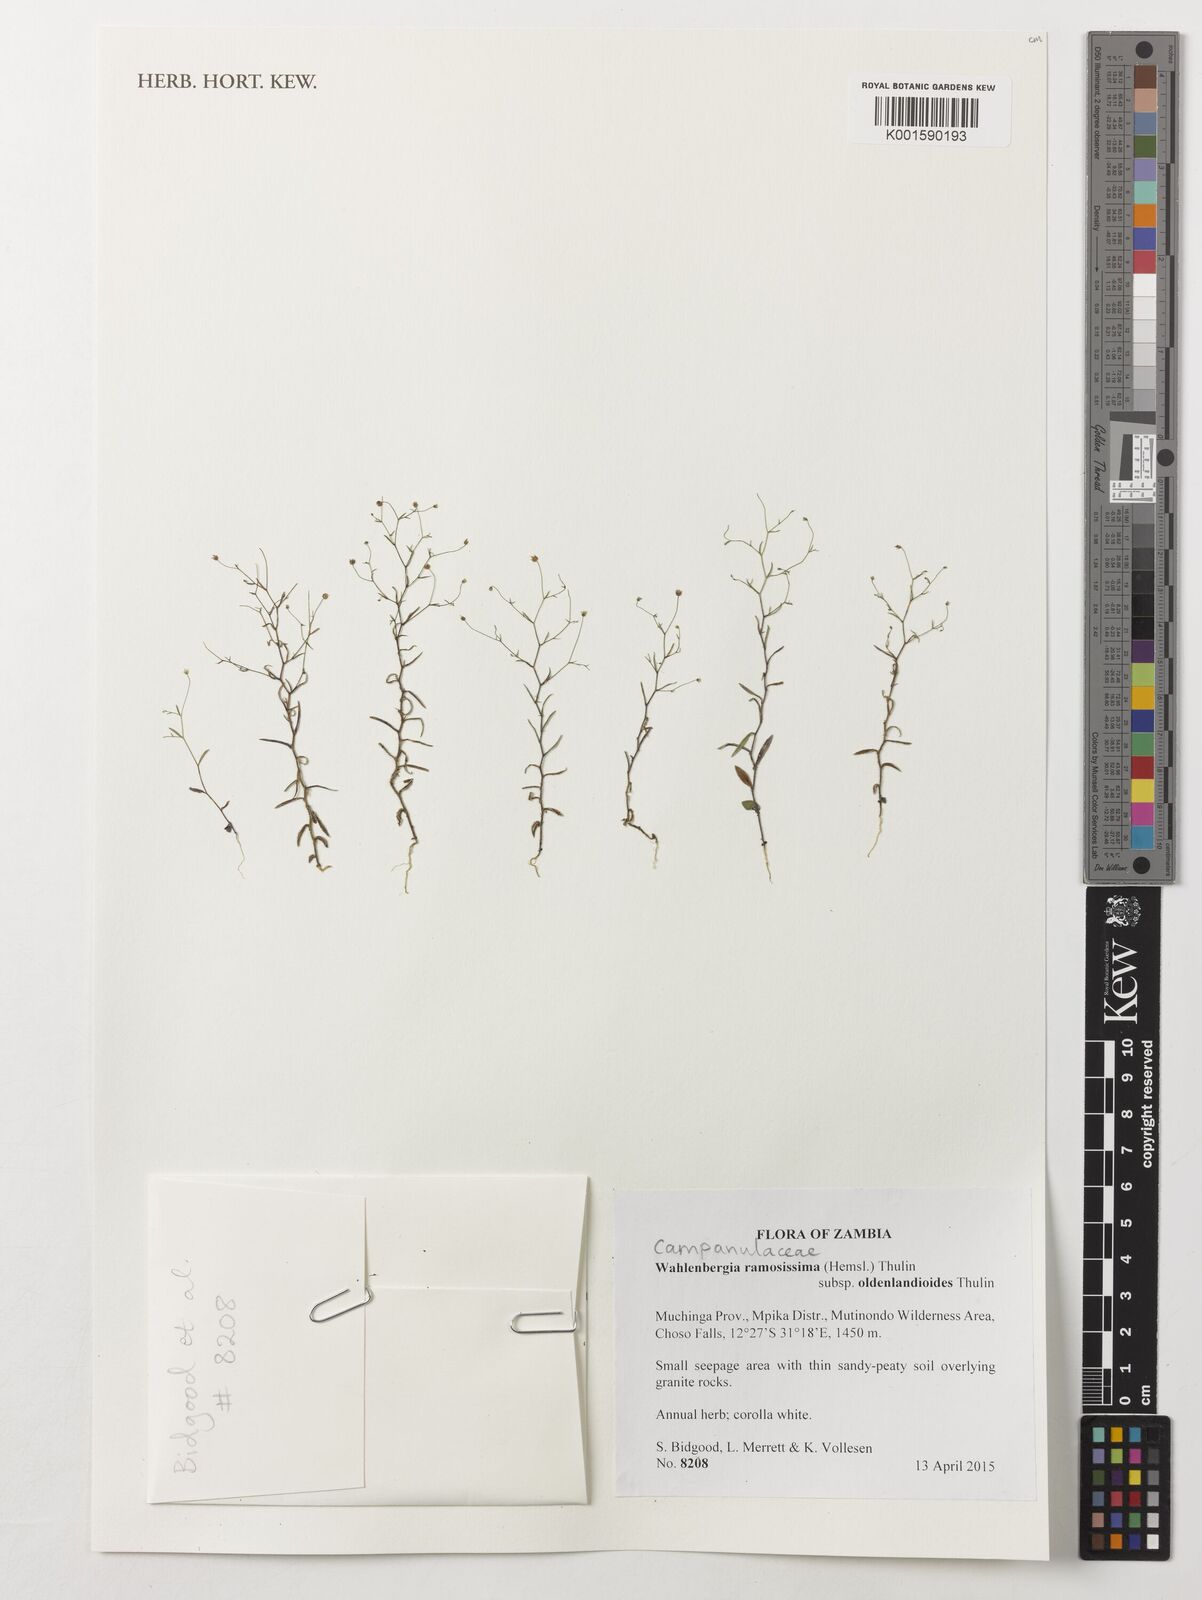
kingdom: Plantae
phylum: Tracheophyta
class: Magnoliopsida
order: Asterales
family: Campanulaceae
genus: Wahlenbergia
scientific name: Wahlenbergia ramosissima
